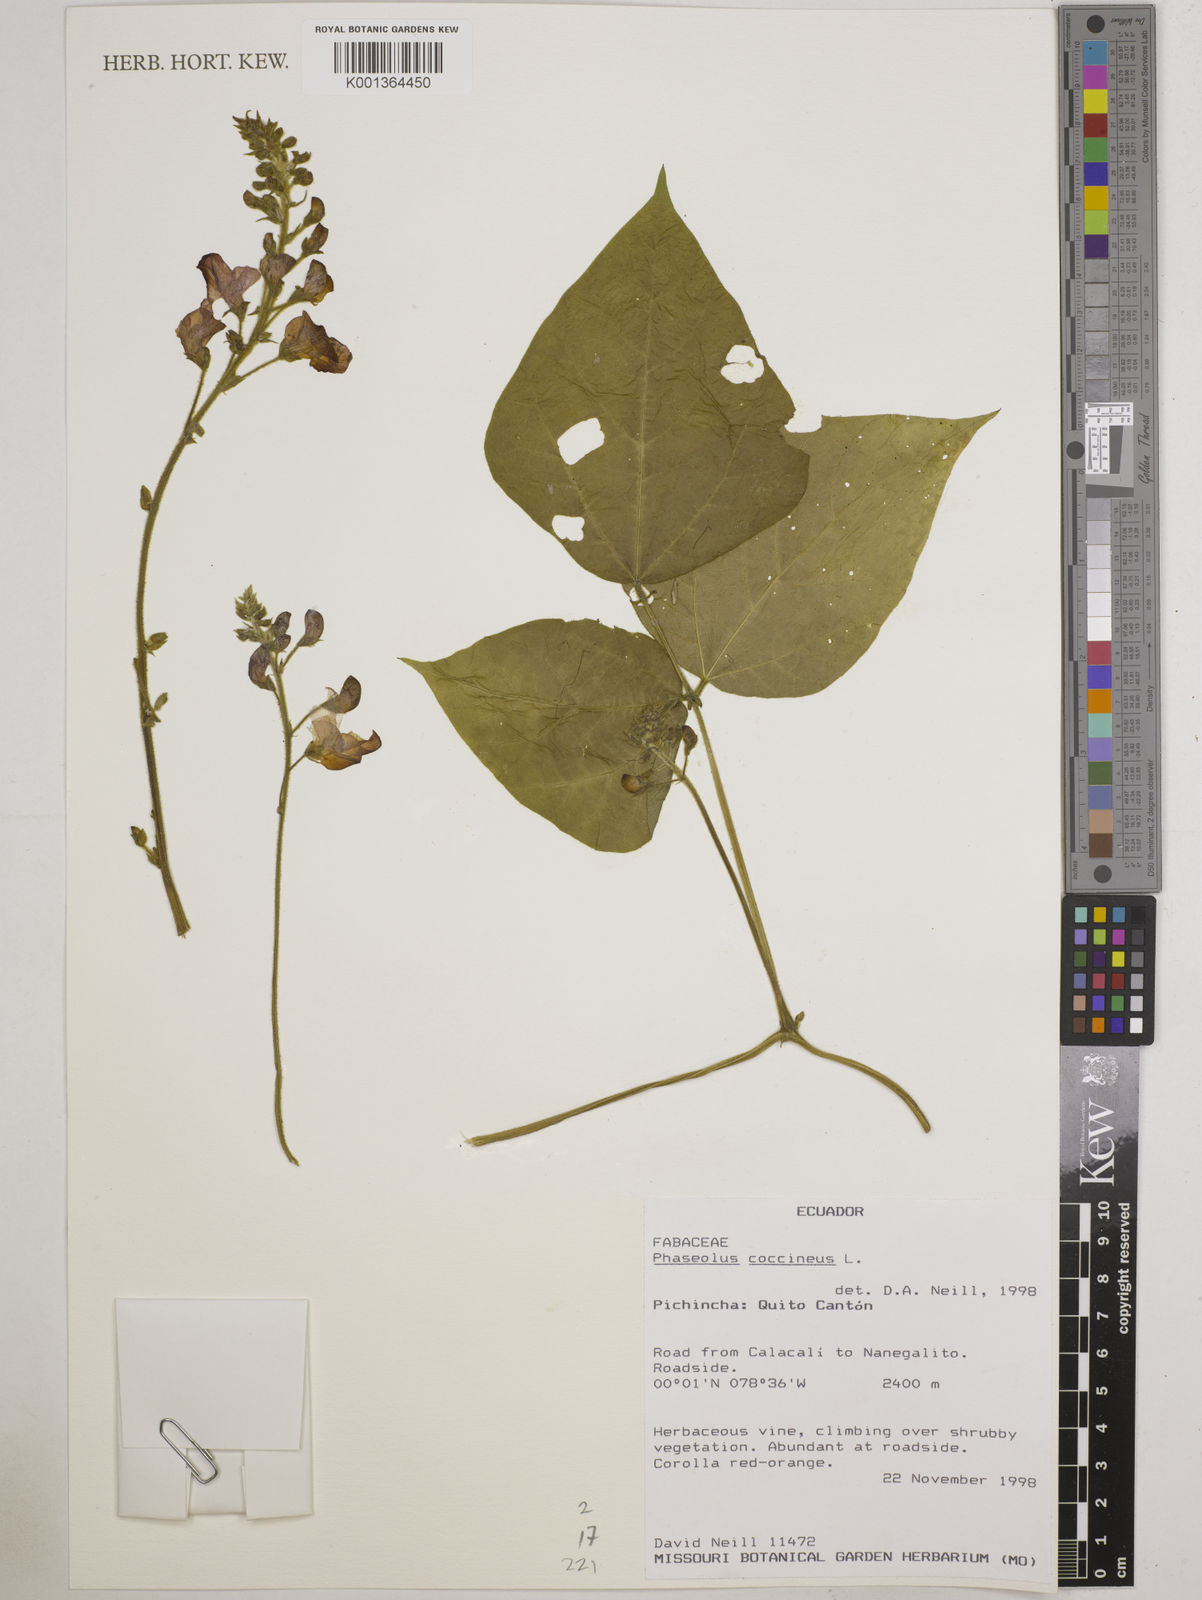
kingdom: Plantae
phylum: Tracheophyta
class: Magnoliopsida
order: Fabales
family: Fabaceae
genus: Phaseolus
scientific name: Phaseolus coccineus
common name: Runner bean
